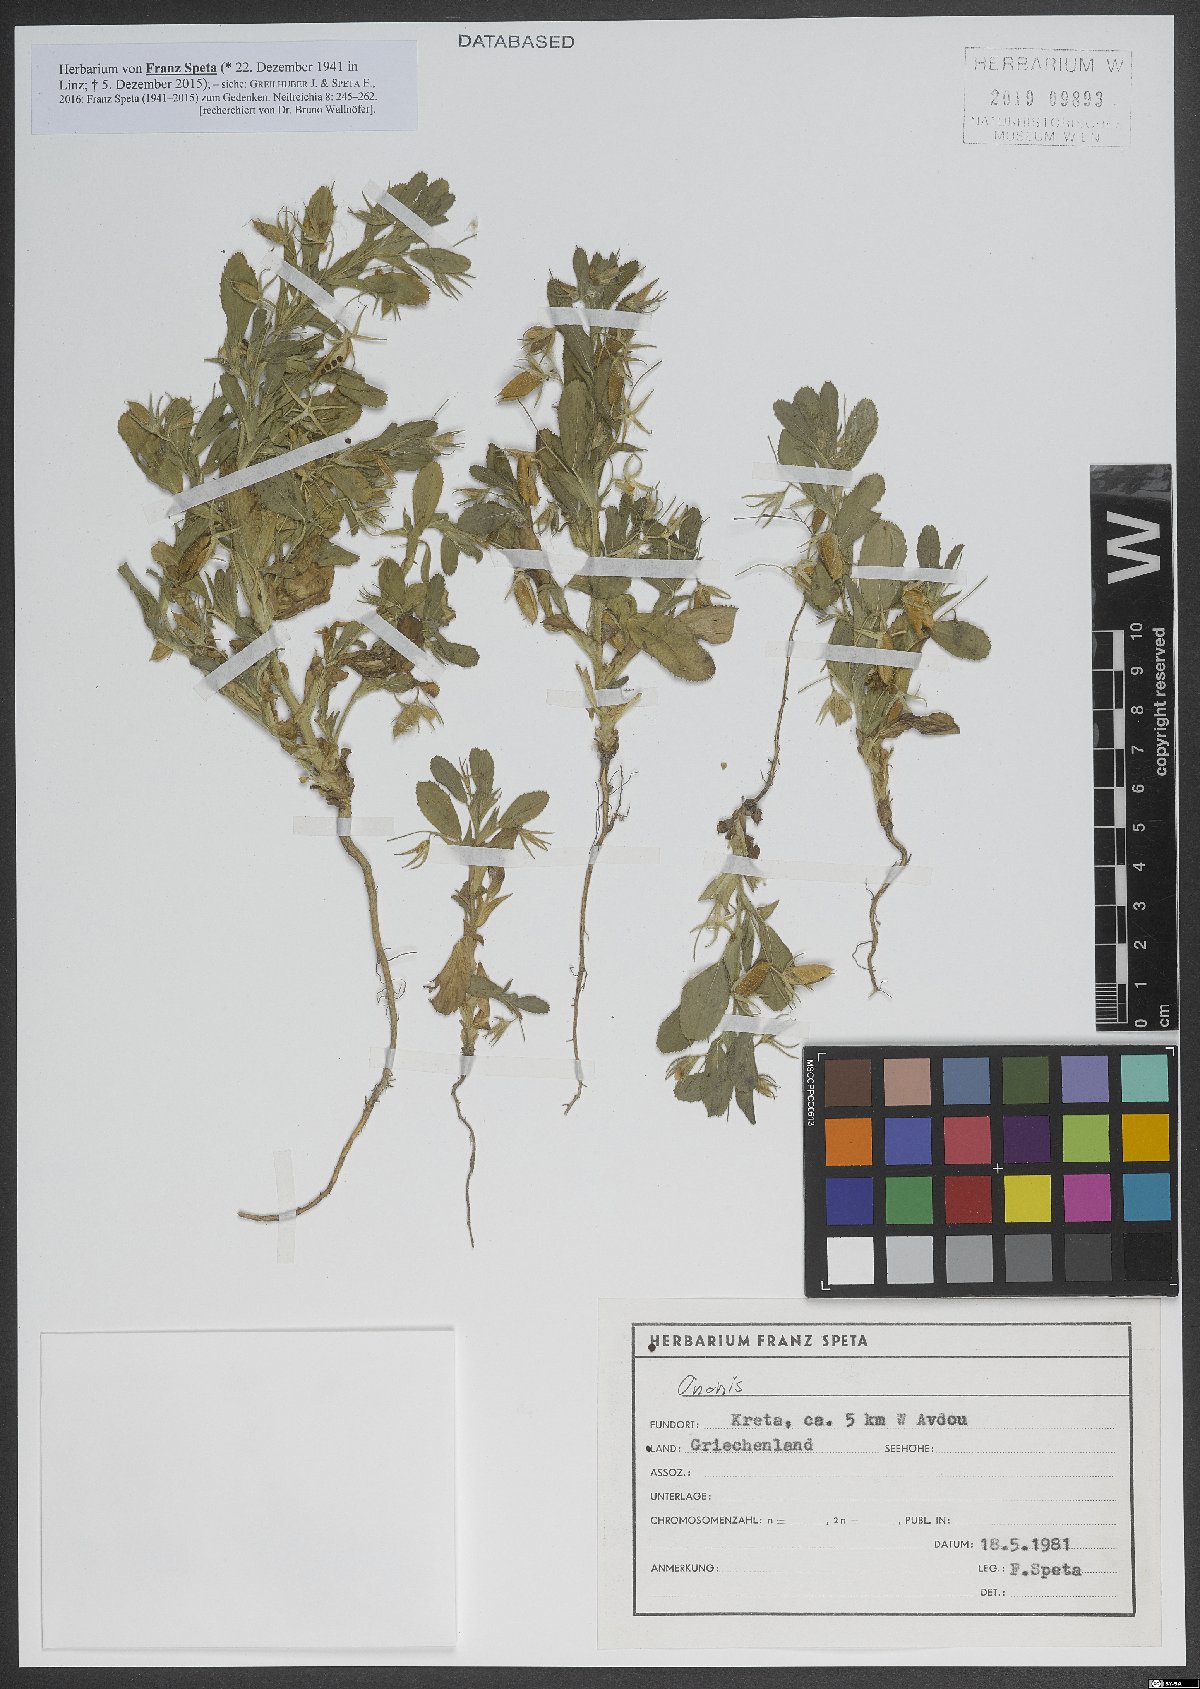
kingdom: Plantae
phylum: Tracheophyta
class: Magnoliopsida
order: Fabales
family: Fabaceae
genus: Ononis
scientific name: Ononis
